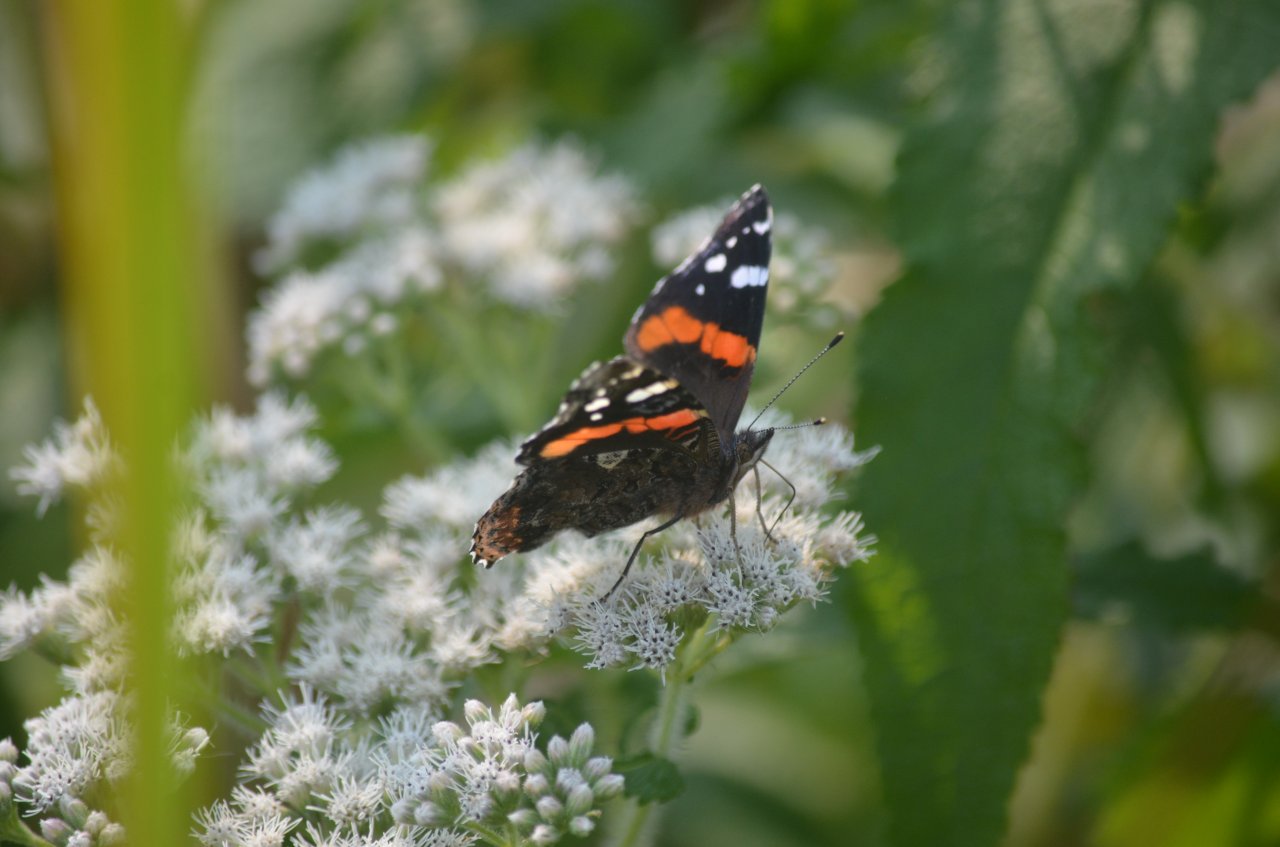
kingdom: Animalia
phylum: Arthropoda
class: Insecta
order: Lepidoptera
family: Nymphalidae
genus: Vanessa
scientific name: Vanessa atalanta
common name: Red Admiral
